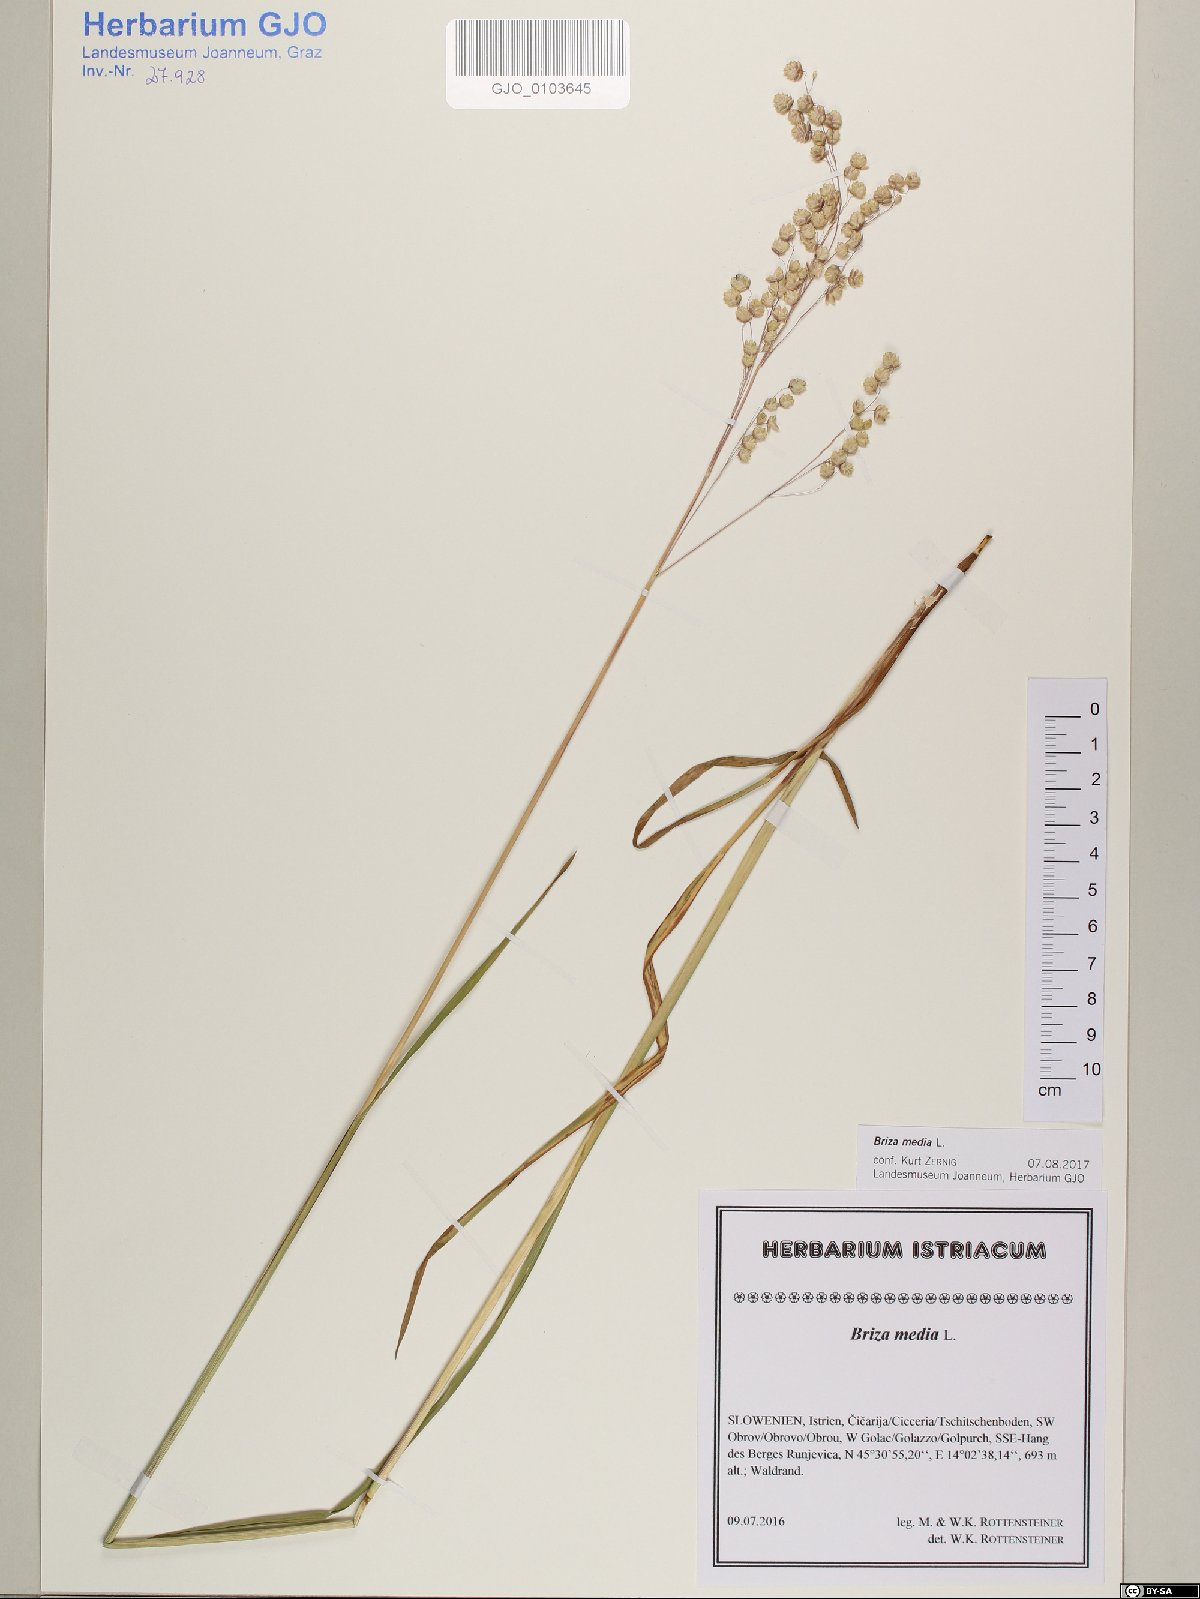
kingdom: Plantae
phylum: Tracheophyta
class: Liliopsida
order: Poales
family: Poaceae
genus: Briza
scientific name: Briza media
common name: Quaking grass
